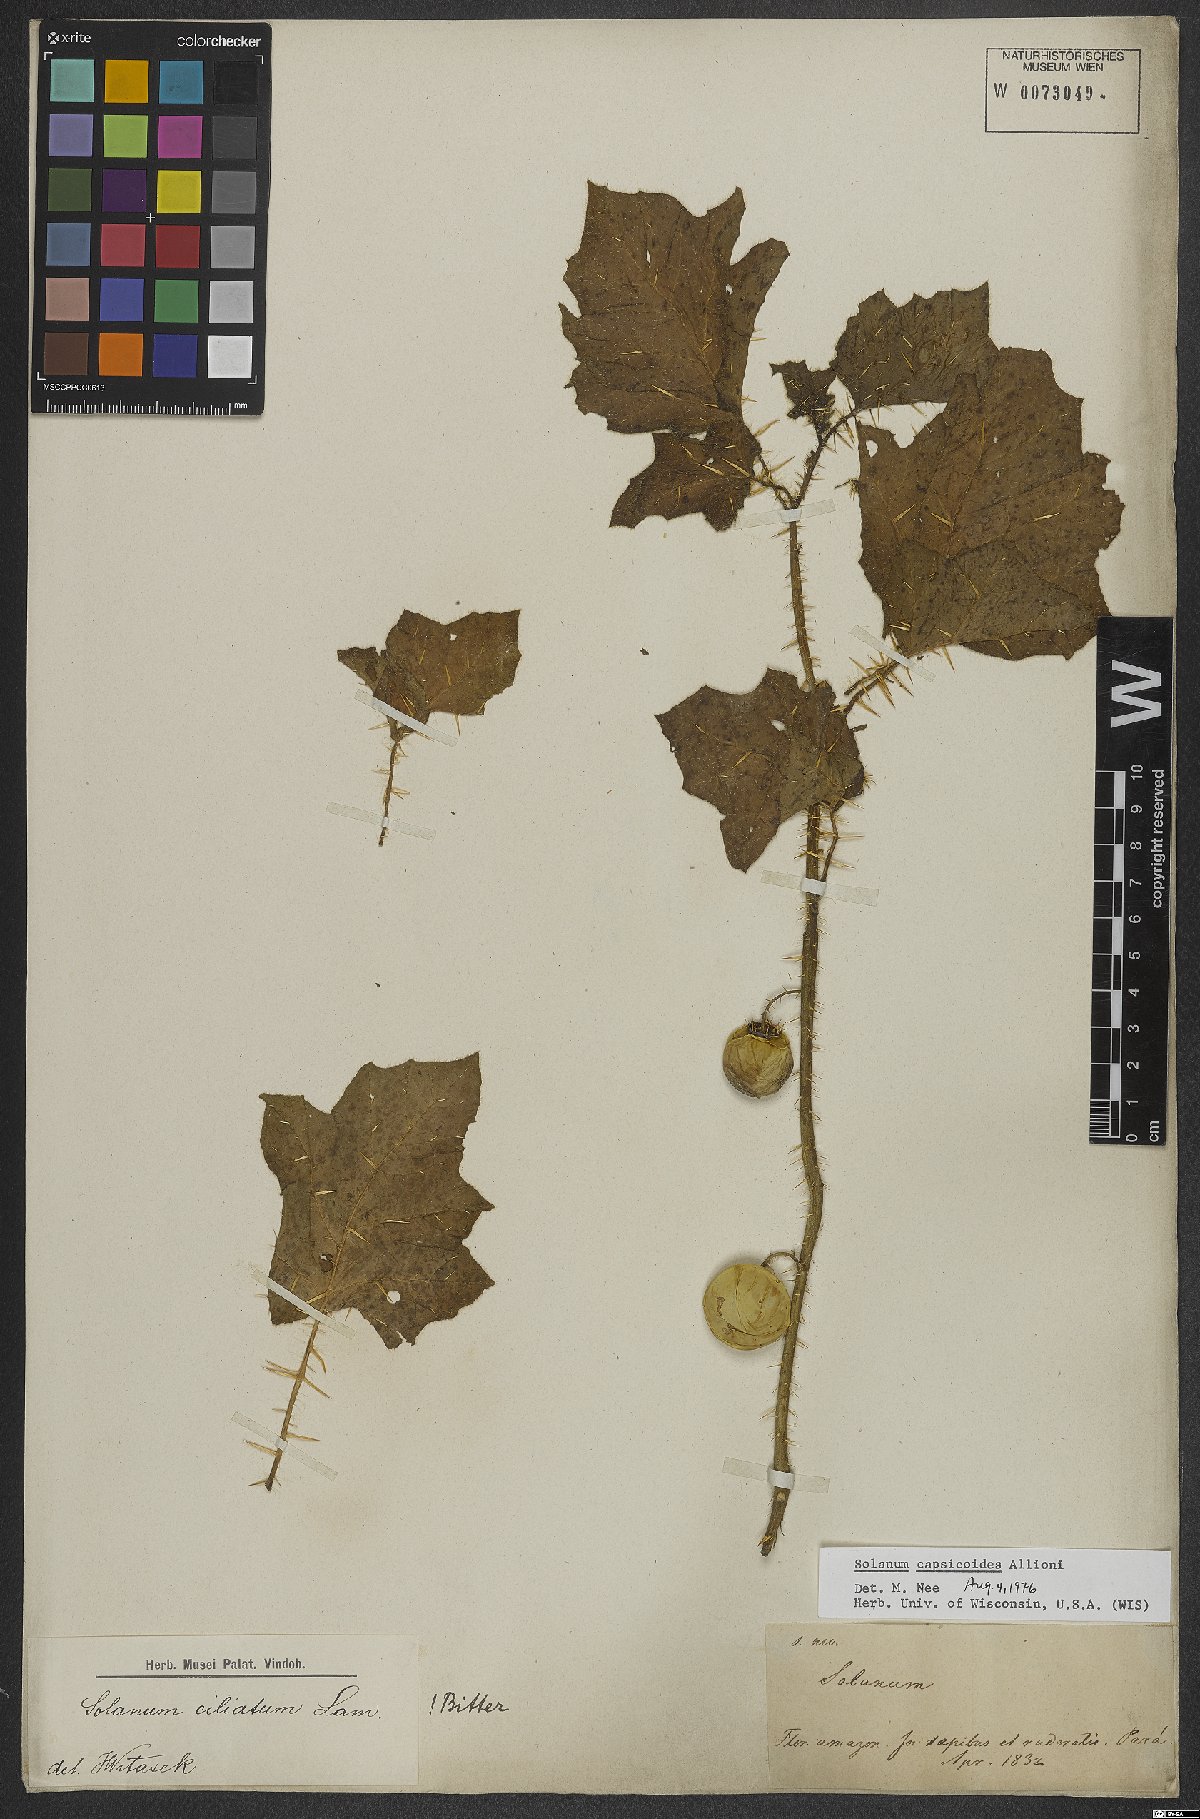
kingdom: Plantae
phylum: Tracheophyta
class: Magnoliopsida
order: Solanales
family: Solanaceae
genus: Solanum
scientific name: Solanum capsicoides
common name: Cockroach berry
